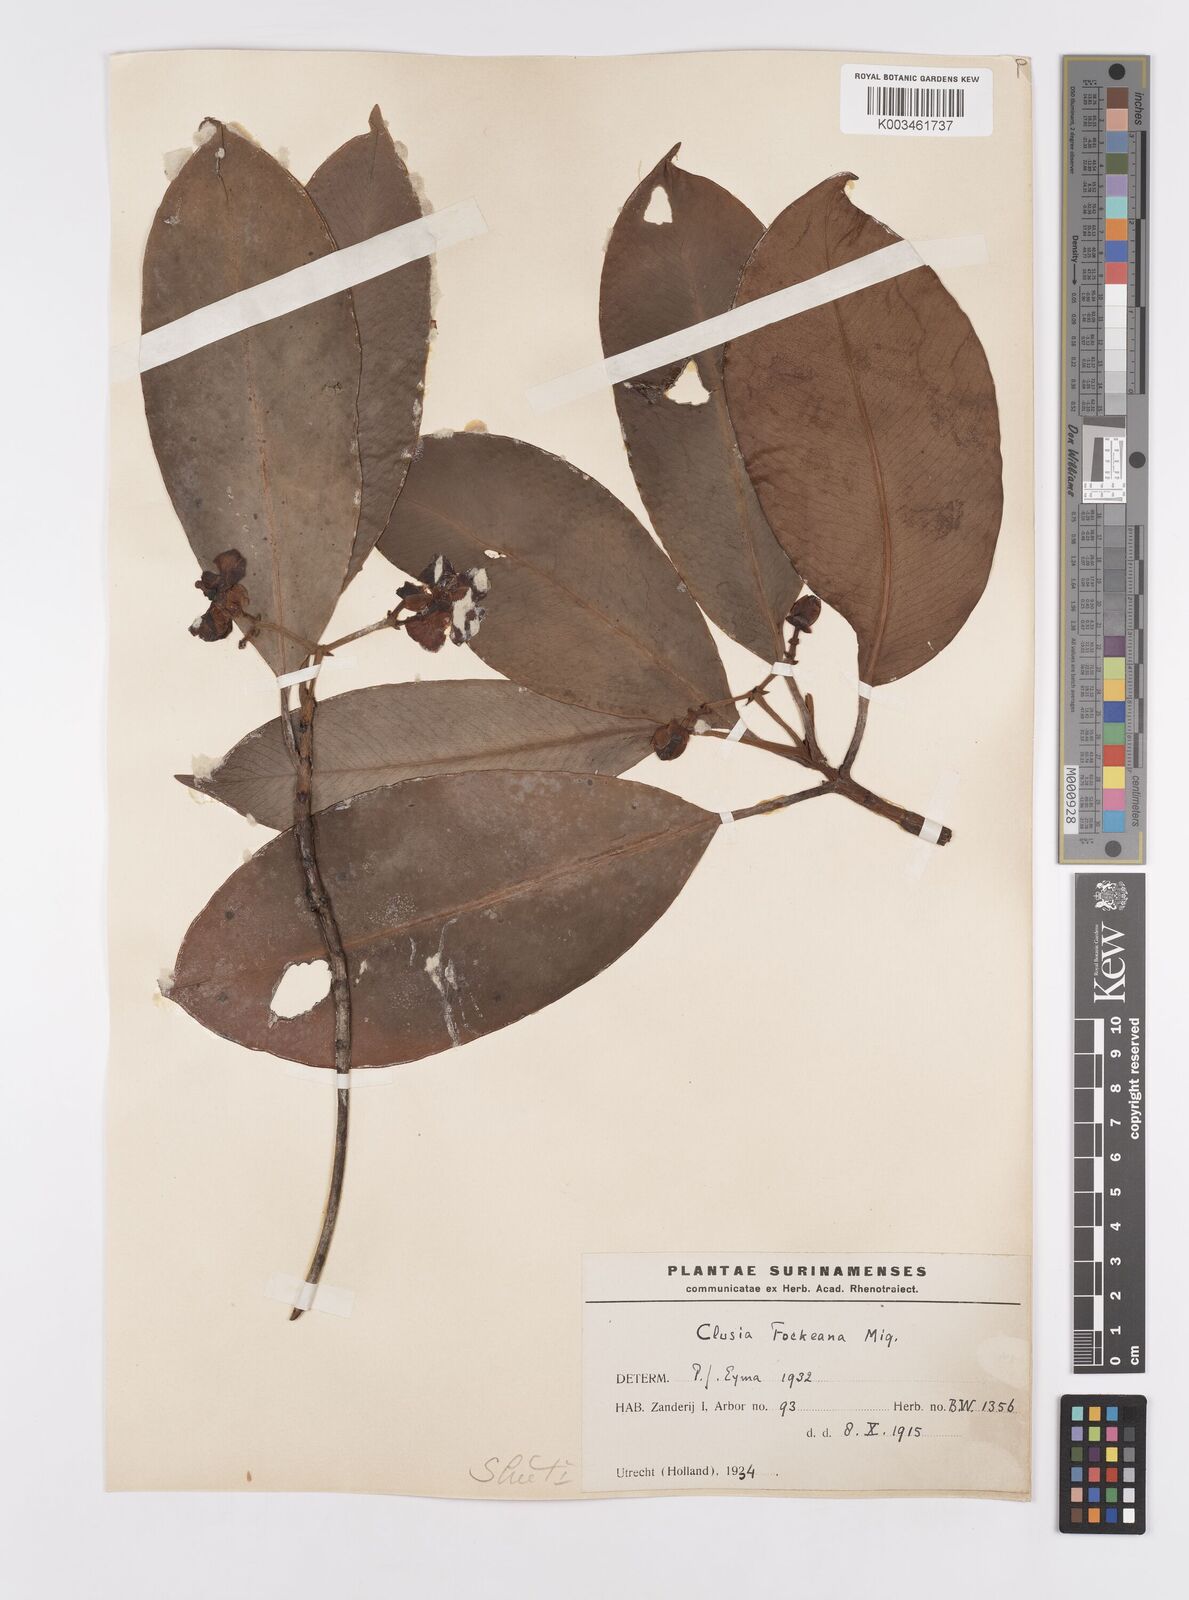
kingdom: Plantae
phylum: Tracheophyta
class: Magnoliopsida
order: Malpighiales
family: Clusiaceae
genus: Clusia
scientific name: Clusia fockeana
